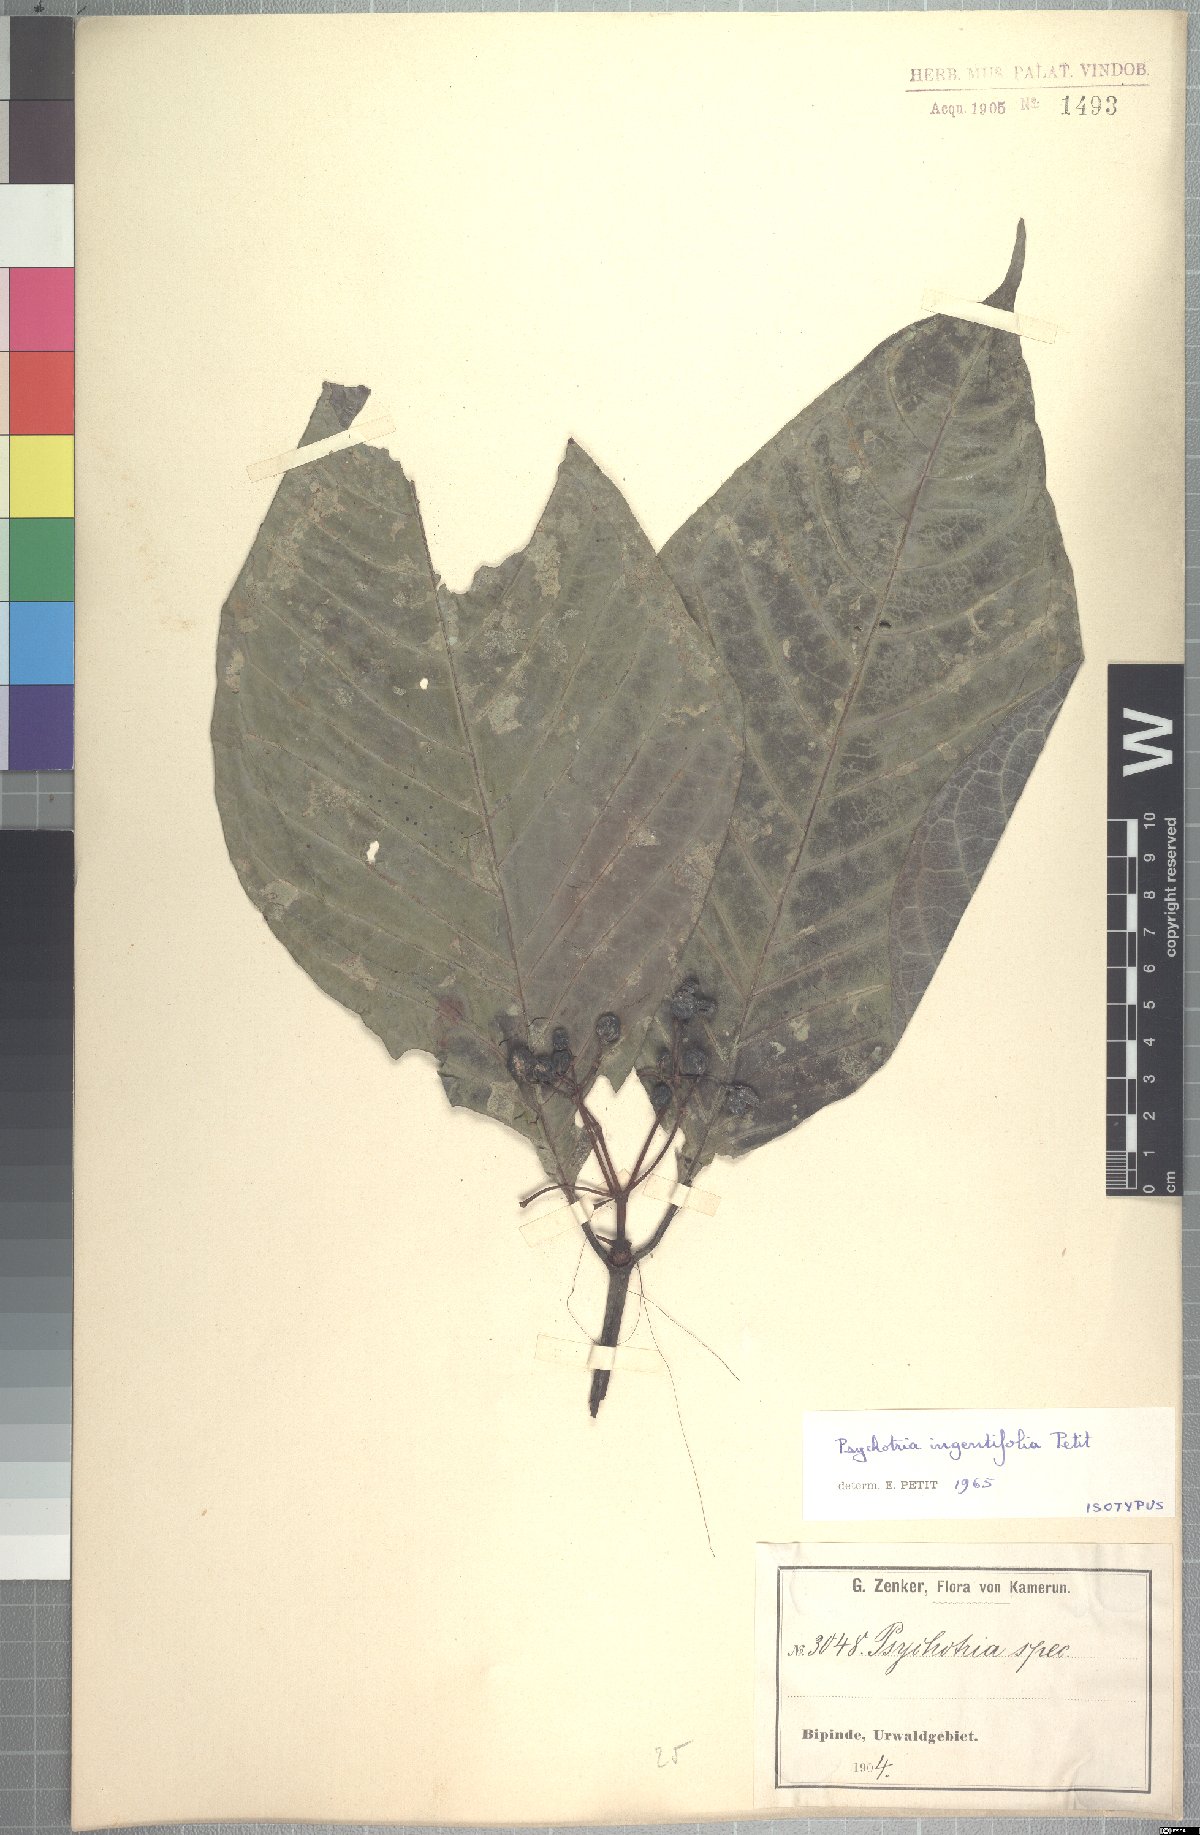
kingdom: Plantae
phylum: Tracheophyta
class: Magnoliopsida
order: Gentianales
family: Rubiaceae
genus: Psychotria
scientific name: Psychotria ingentifolia
